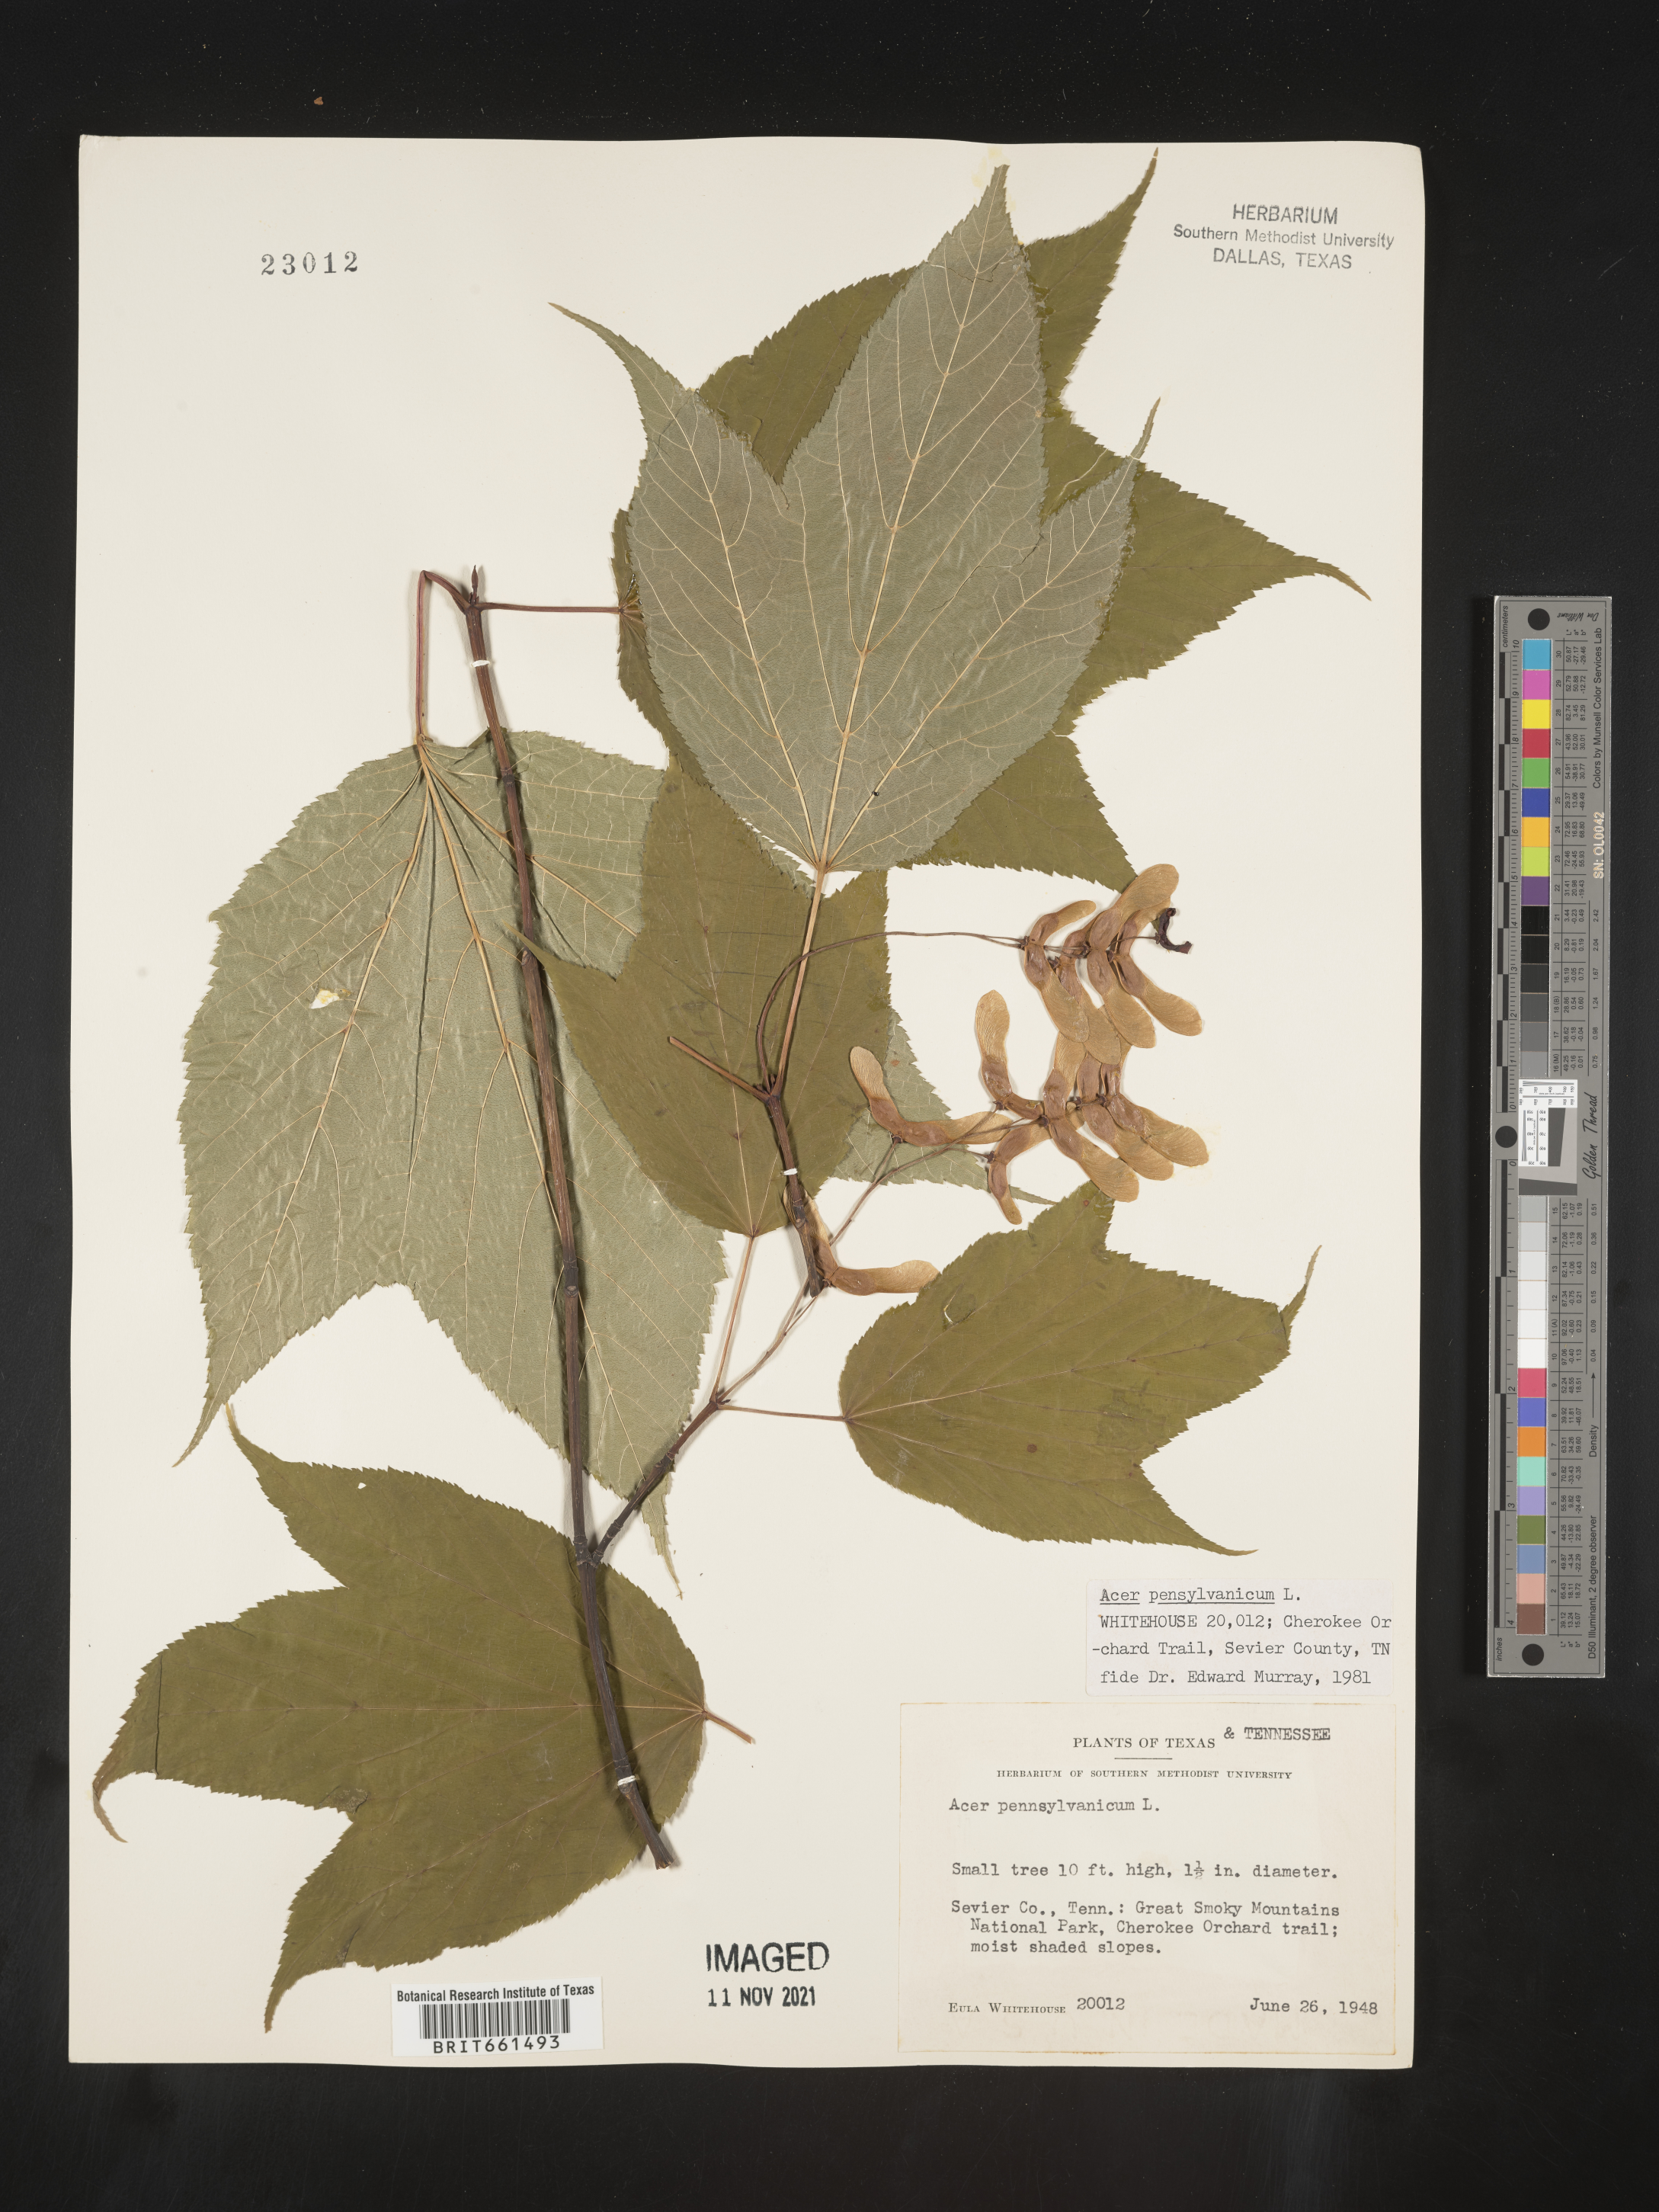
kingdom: Plantae
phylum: Tracheophyta
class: Magnoliopsida
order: Sapindales
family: Sapindaceae
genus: Acer
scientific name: Acer pensylvanicum
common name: Moosewood
